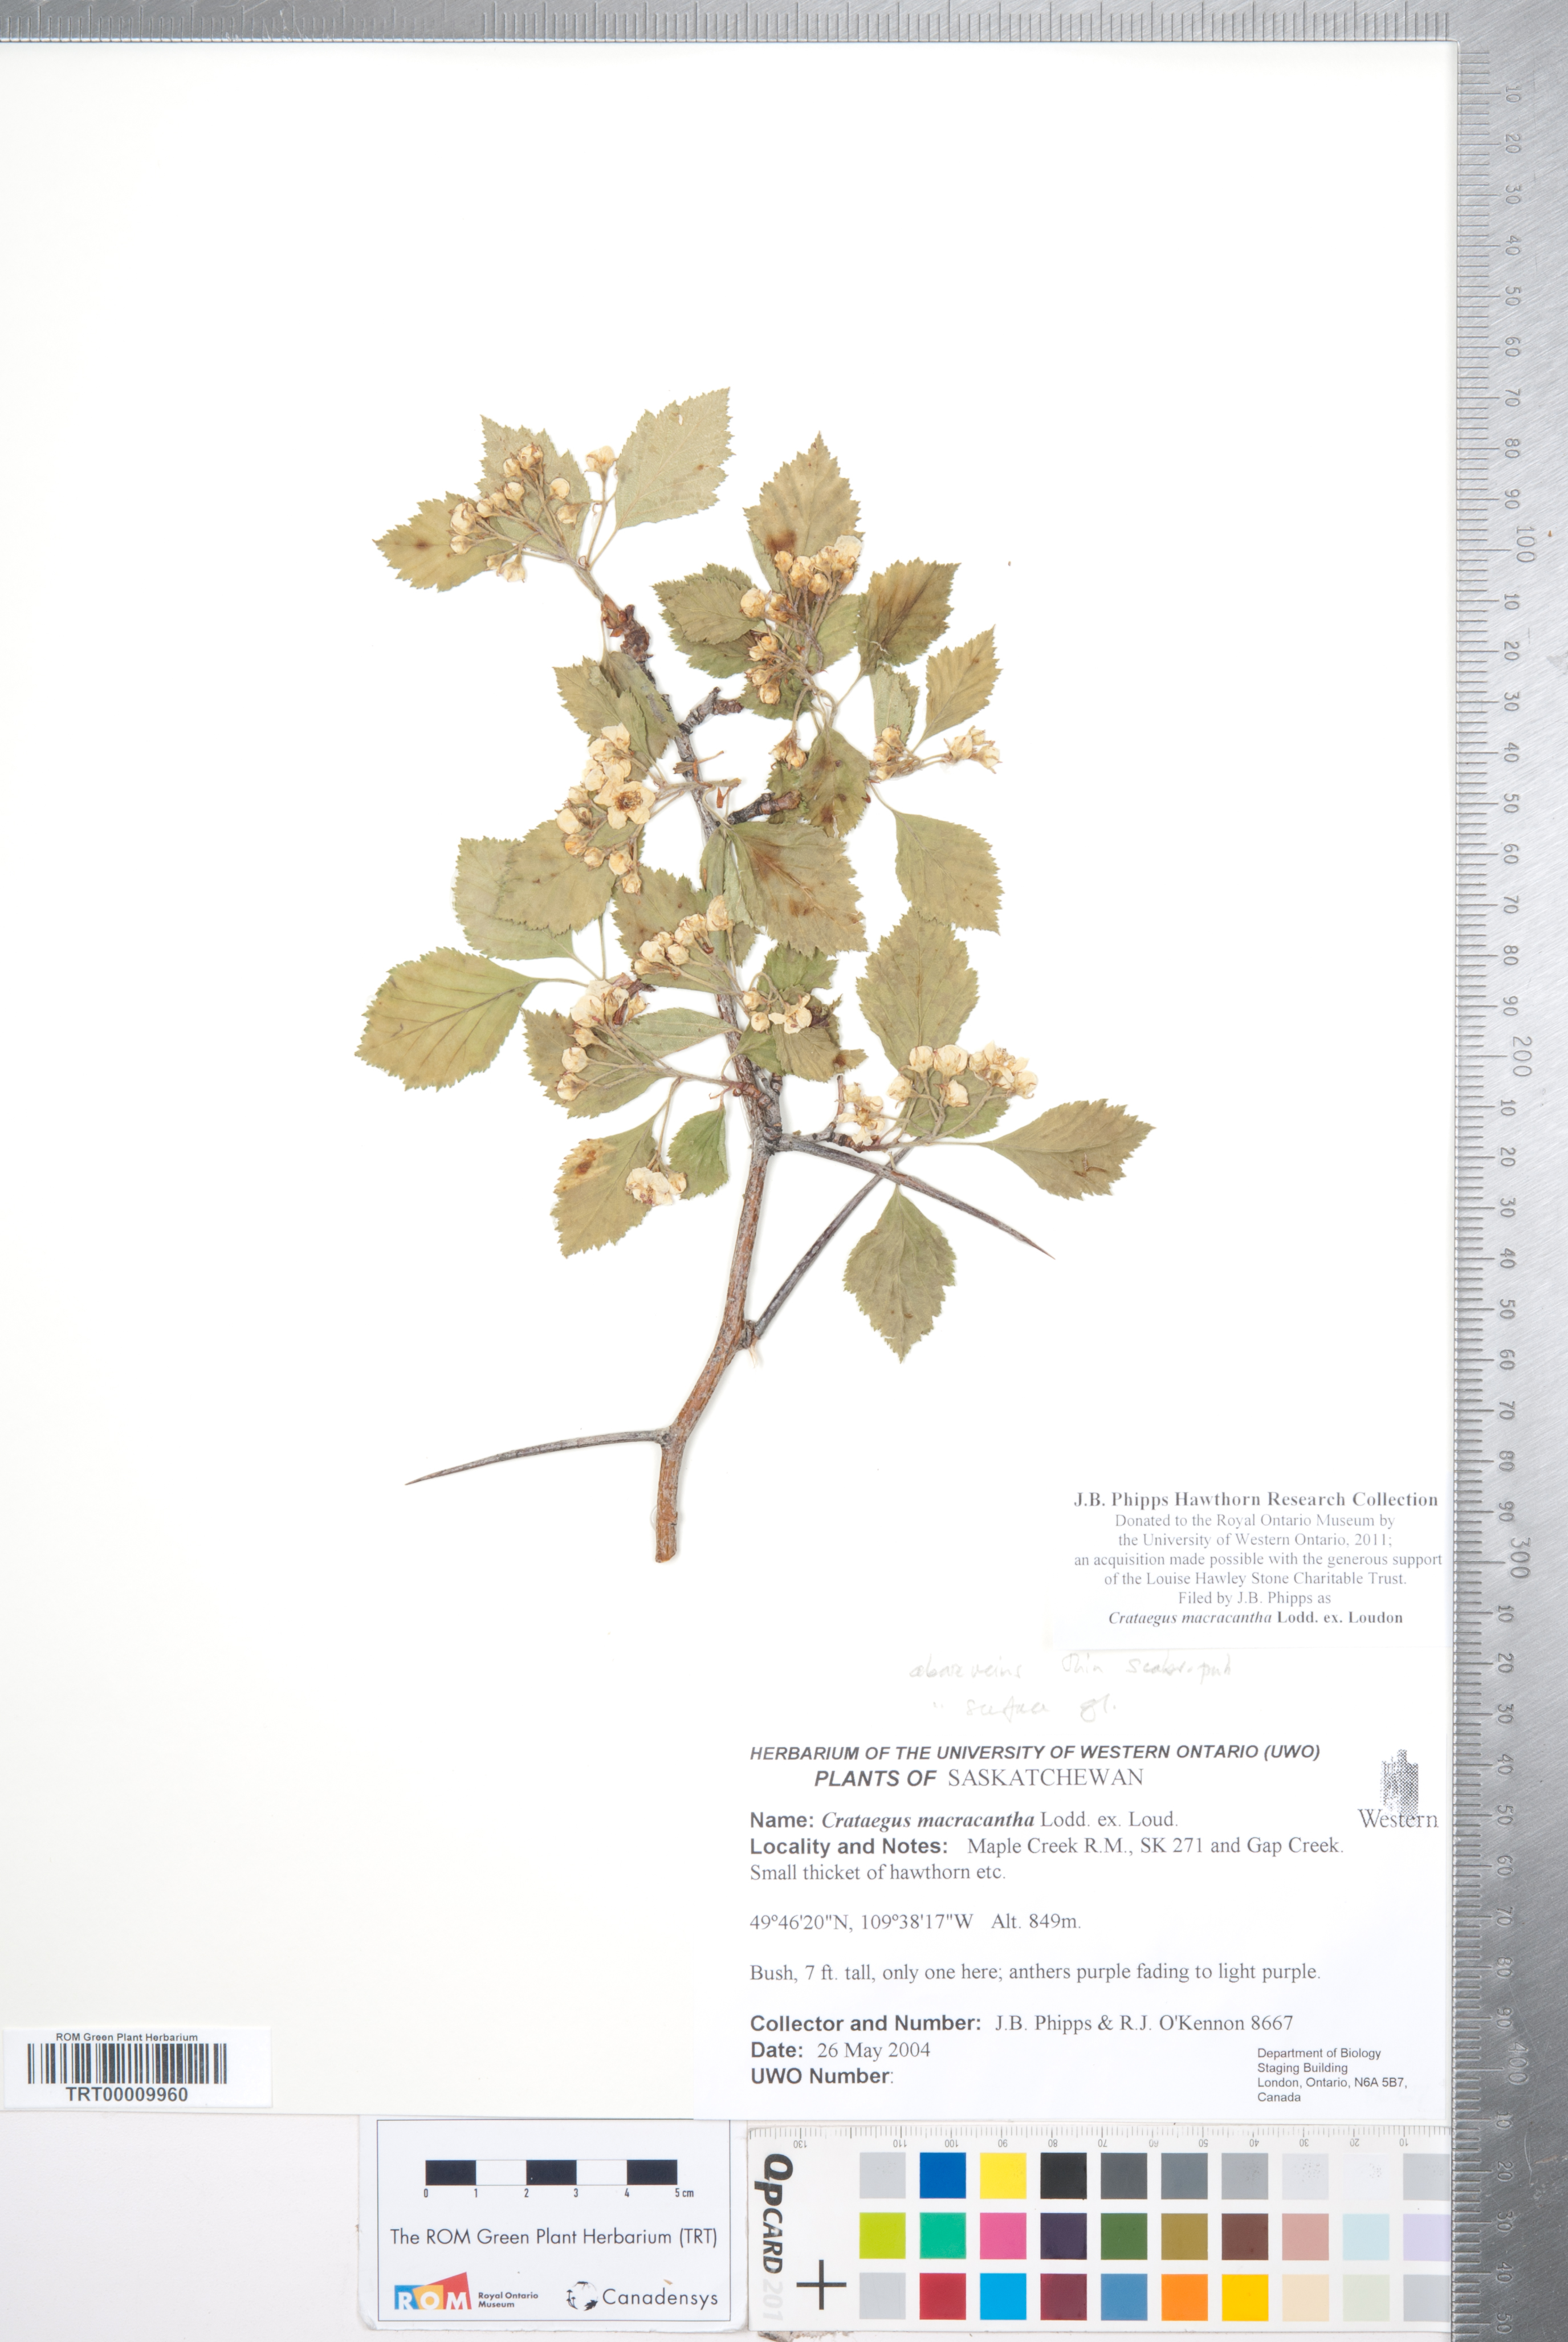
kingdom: Plantae
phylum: Tracheophyta
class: Magnoliopsida
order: Rosales
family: Rosaceae
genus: Crataegus
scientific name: Crataegus macracantha
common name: Large-thorn hawthorn
